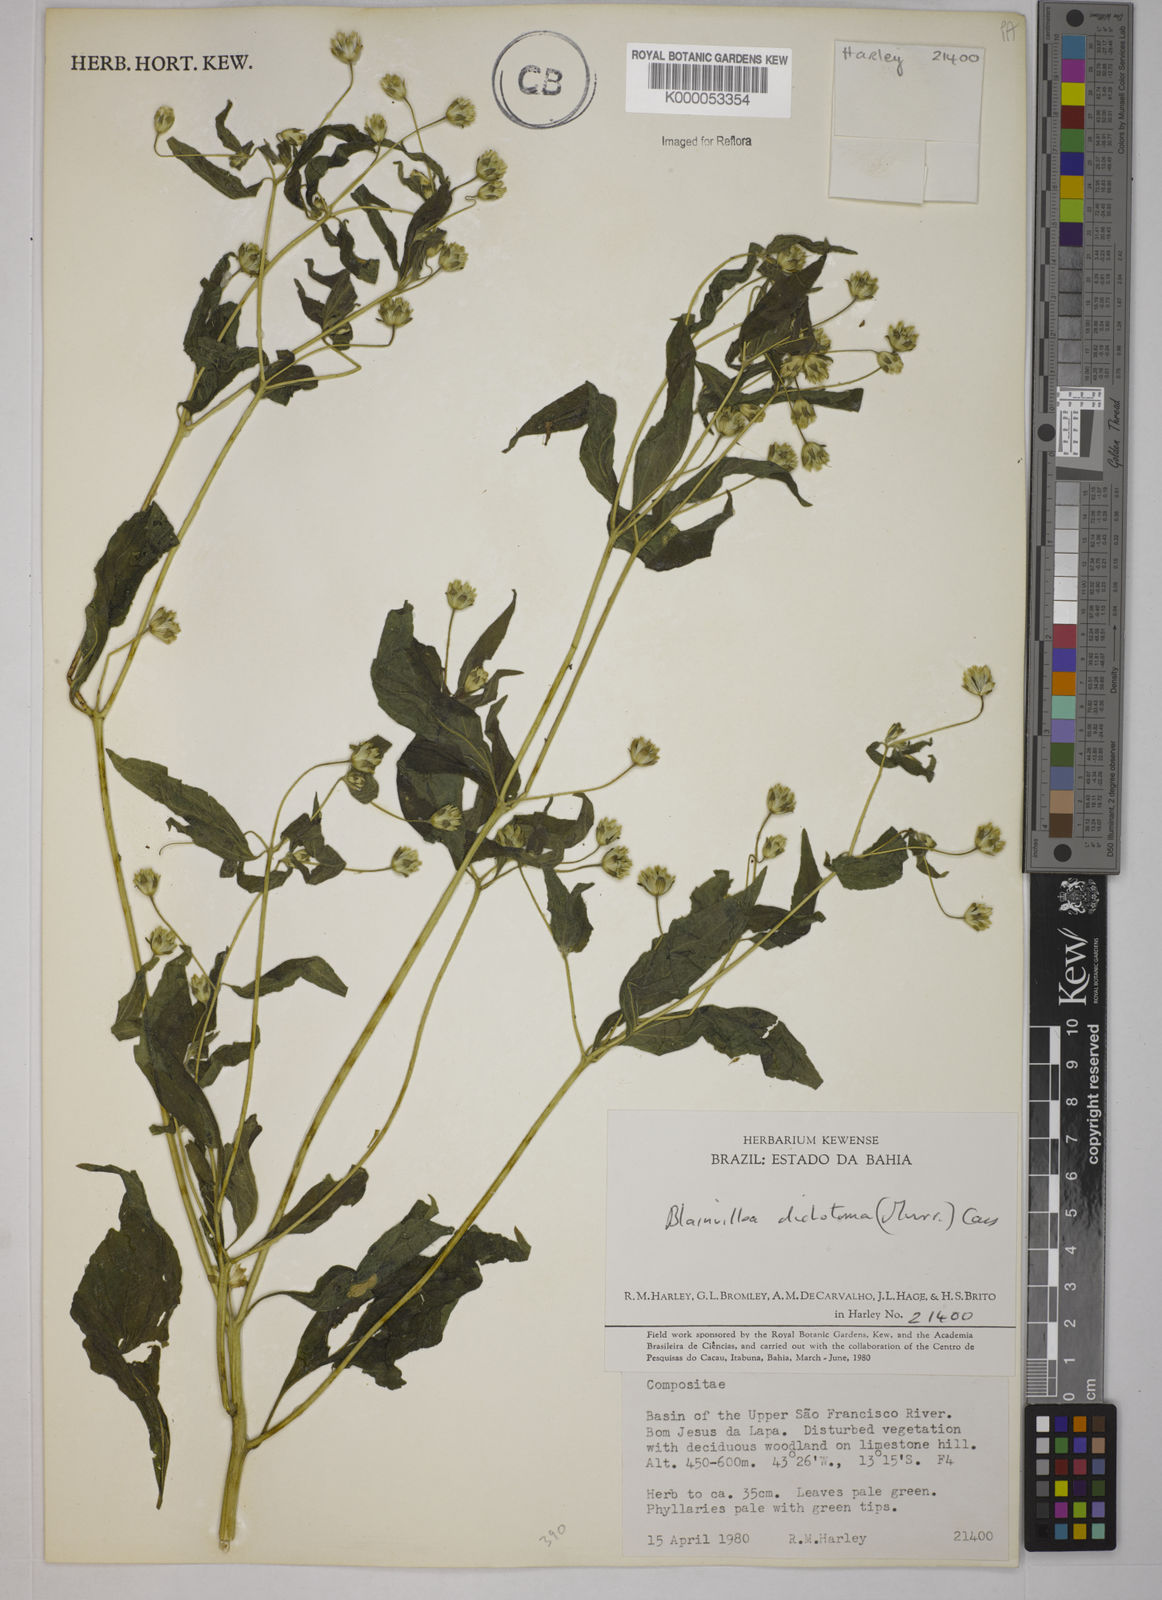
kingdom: Plantae
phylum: Tracheophyta
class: Magnoliopsida
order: Asterales
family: Asteraceae
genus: Blainvillea
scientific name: Blainvillea acmella
